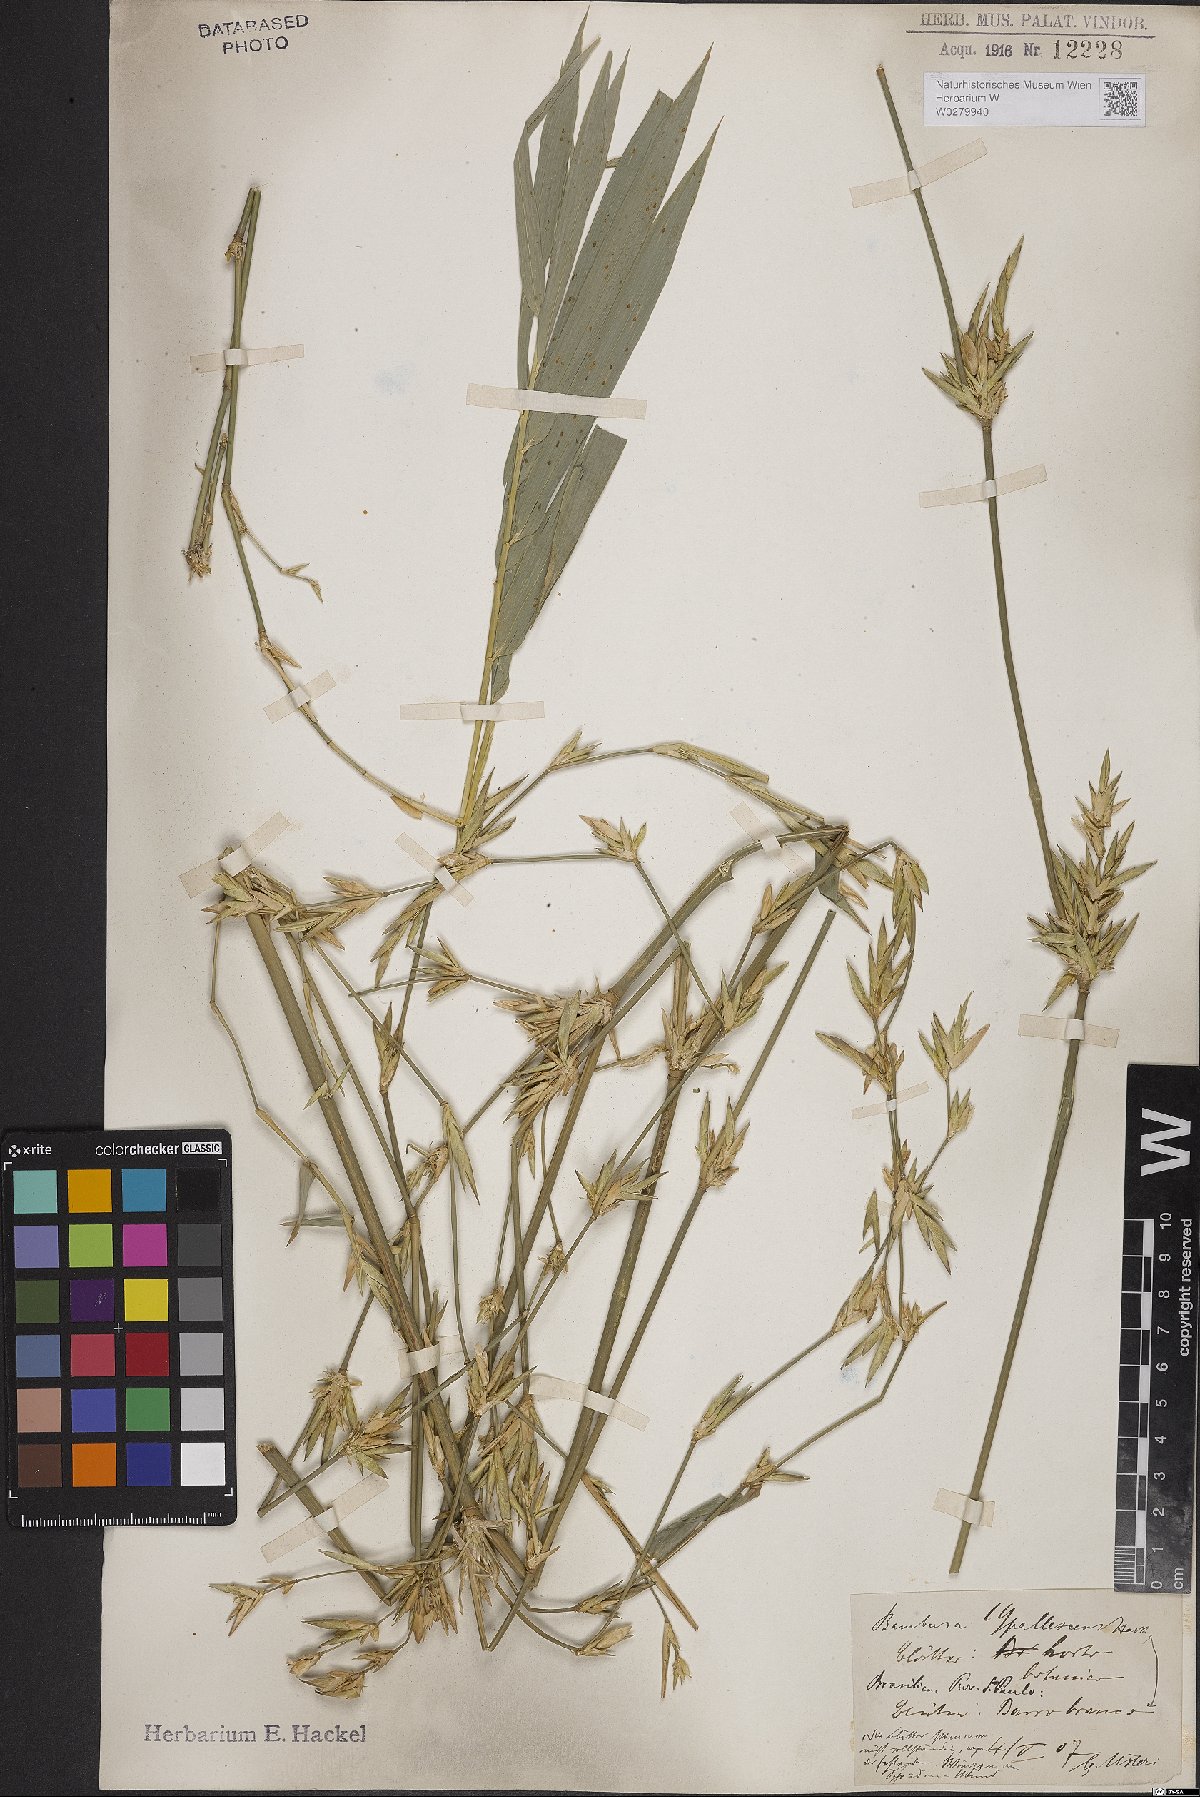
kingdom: Plantae
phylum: Tracheophyta
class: Liliopsida
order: Poales
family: Poaceae
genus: Bambusa
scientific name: Bambusa tuldoides
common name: Verdant bamboo
